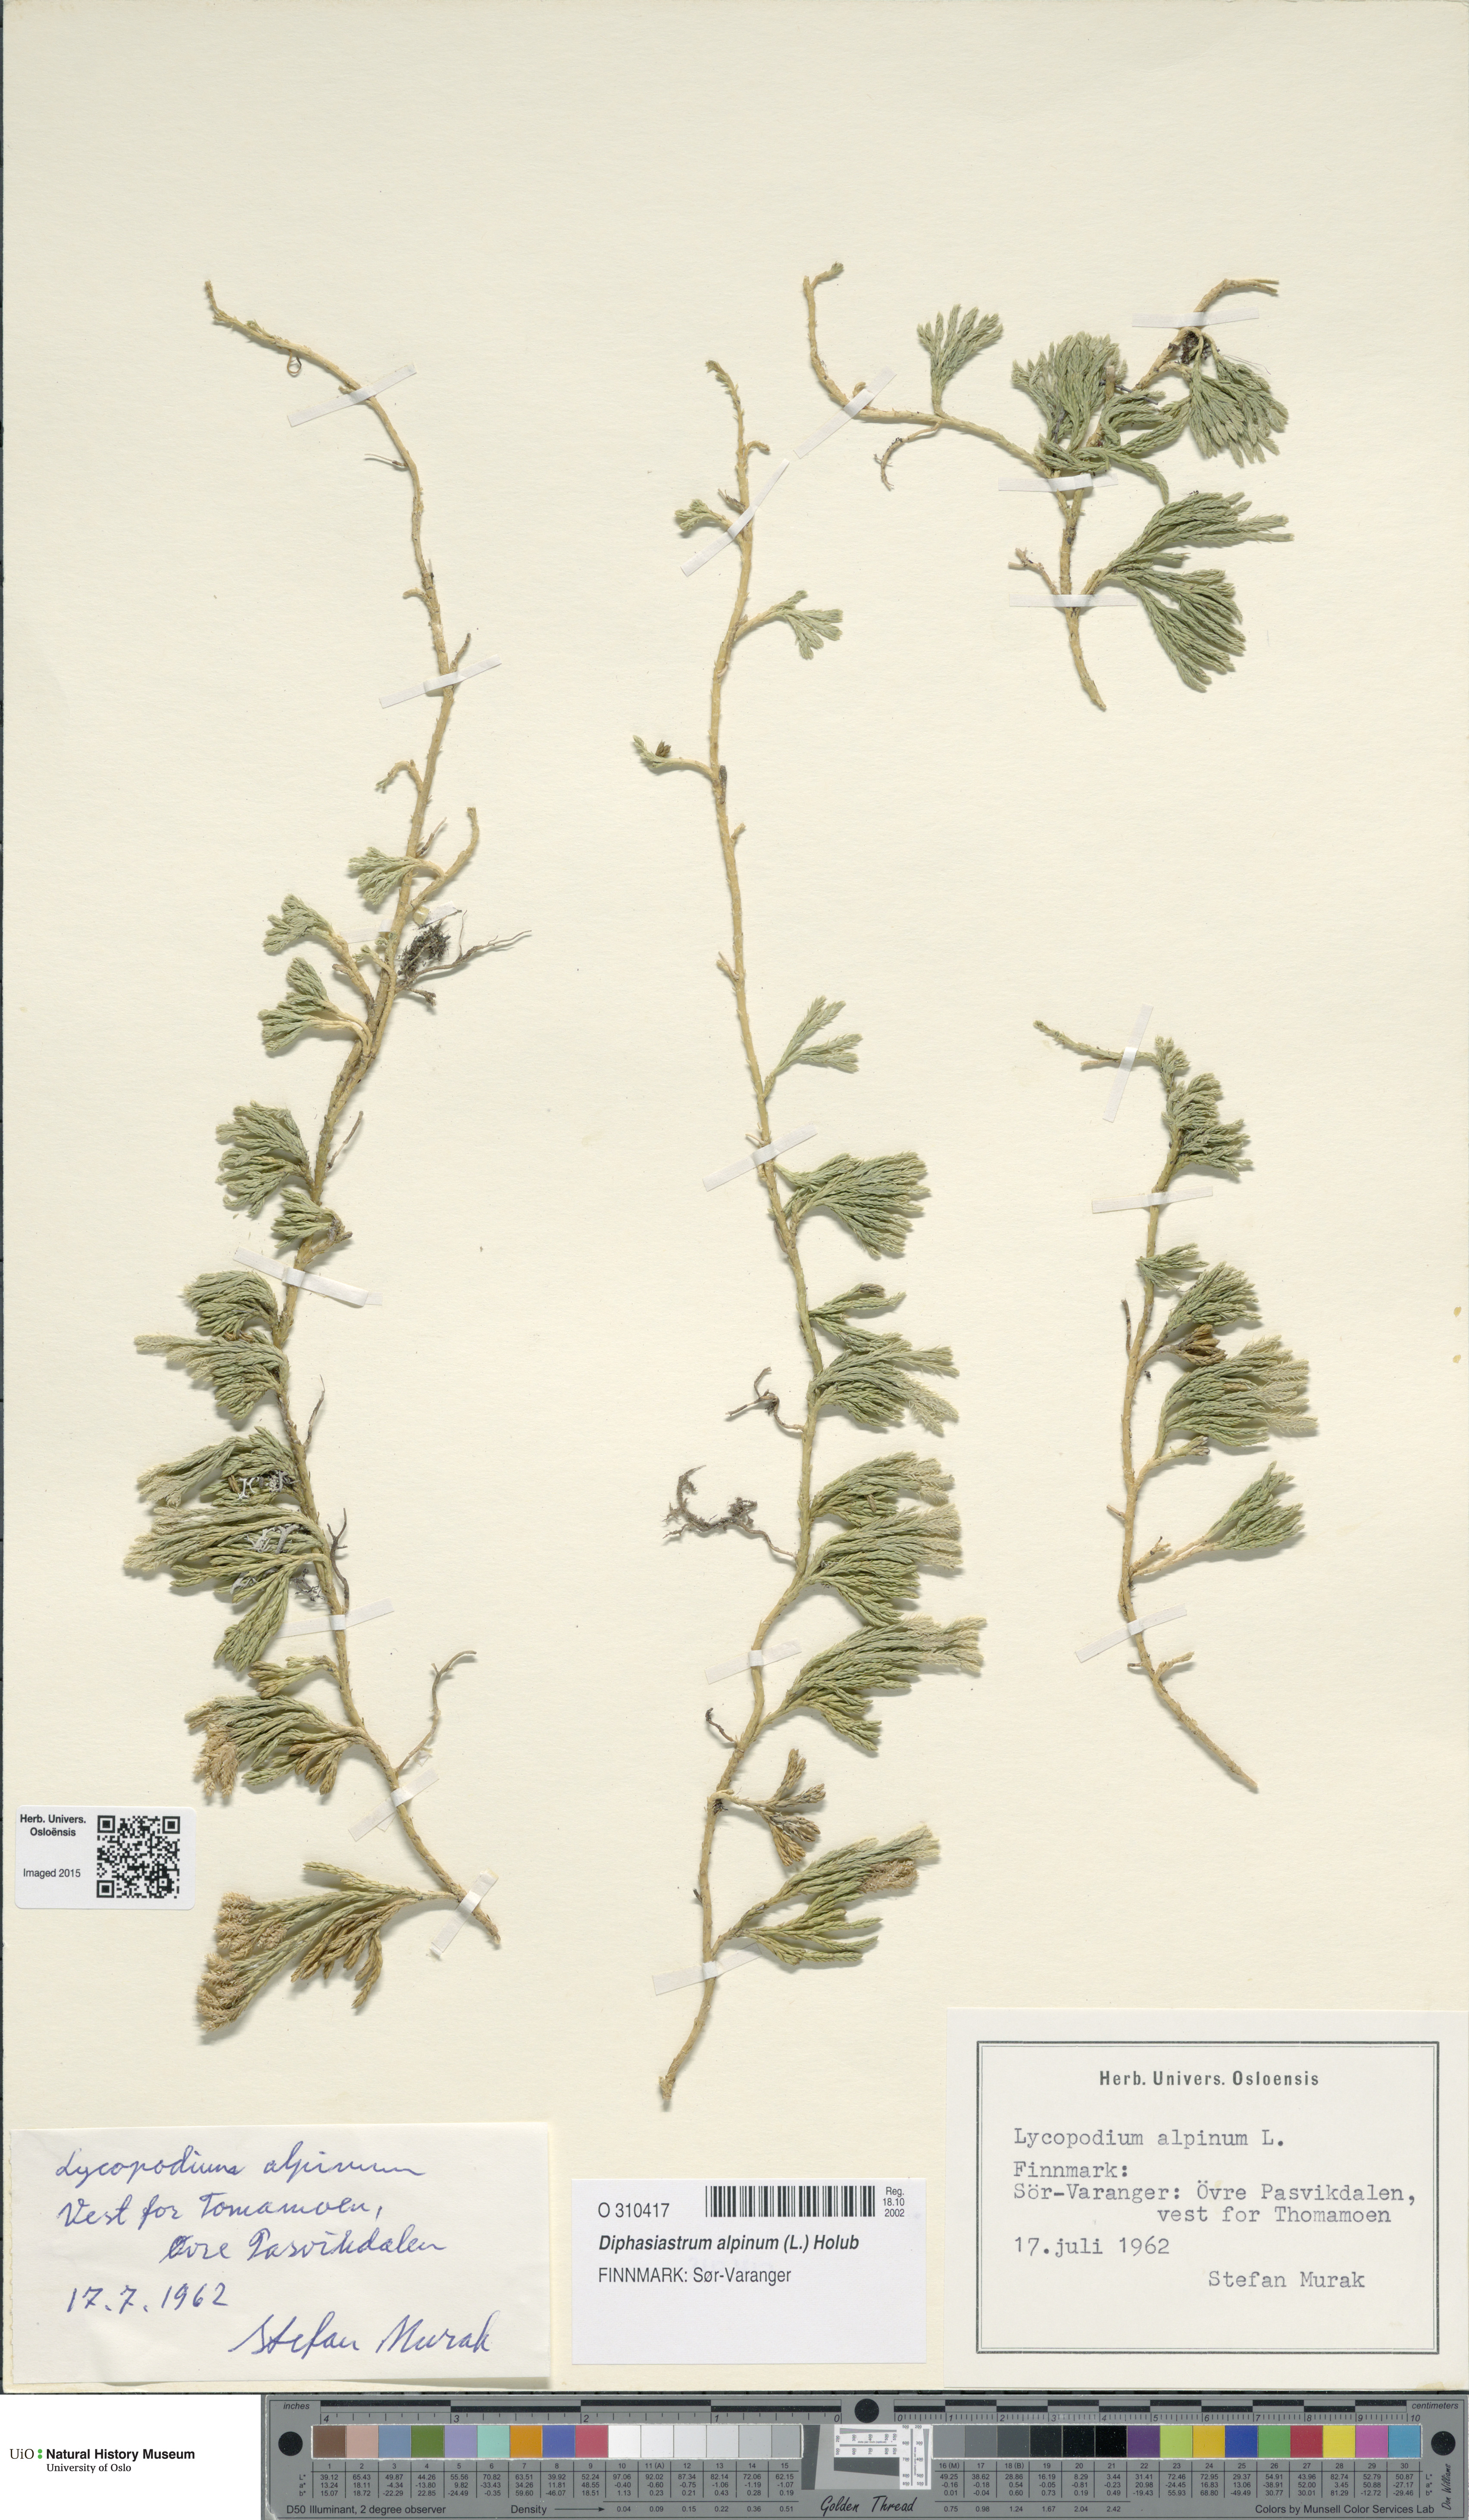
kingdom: Plantae
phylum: Tracheophyta
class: Lycopodiopsida
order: Lycopodiales
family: Lycopodiaceae
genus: Diphasiastrum
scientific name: Diphasiastrum alpinum
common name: Alpine clubmoss
